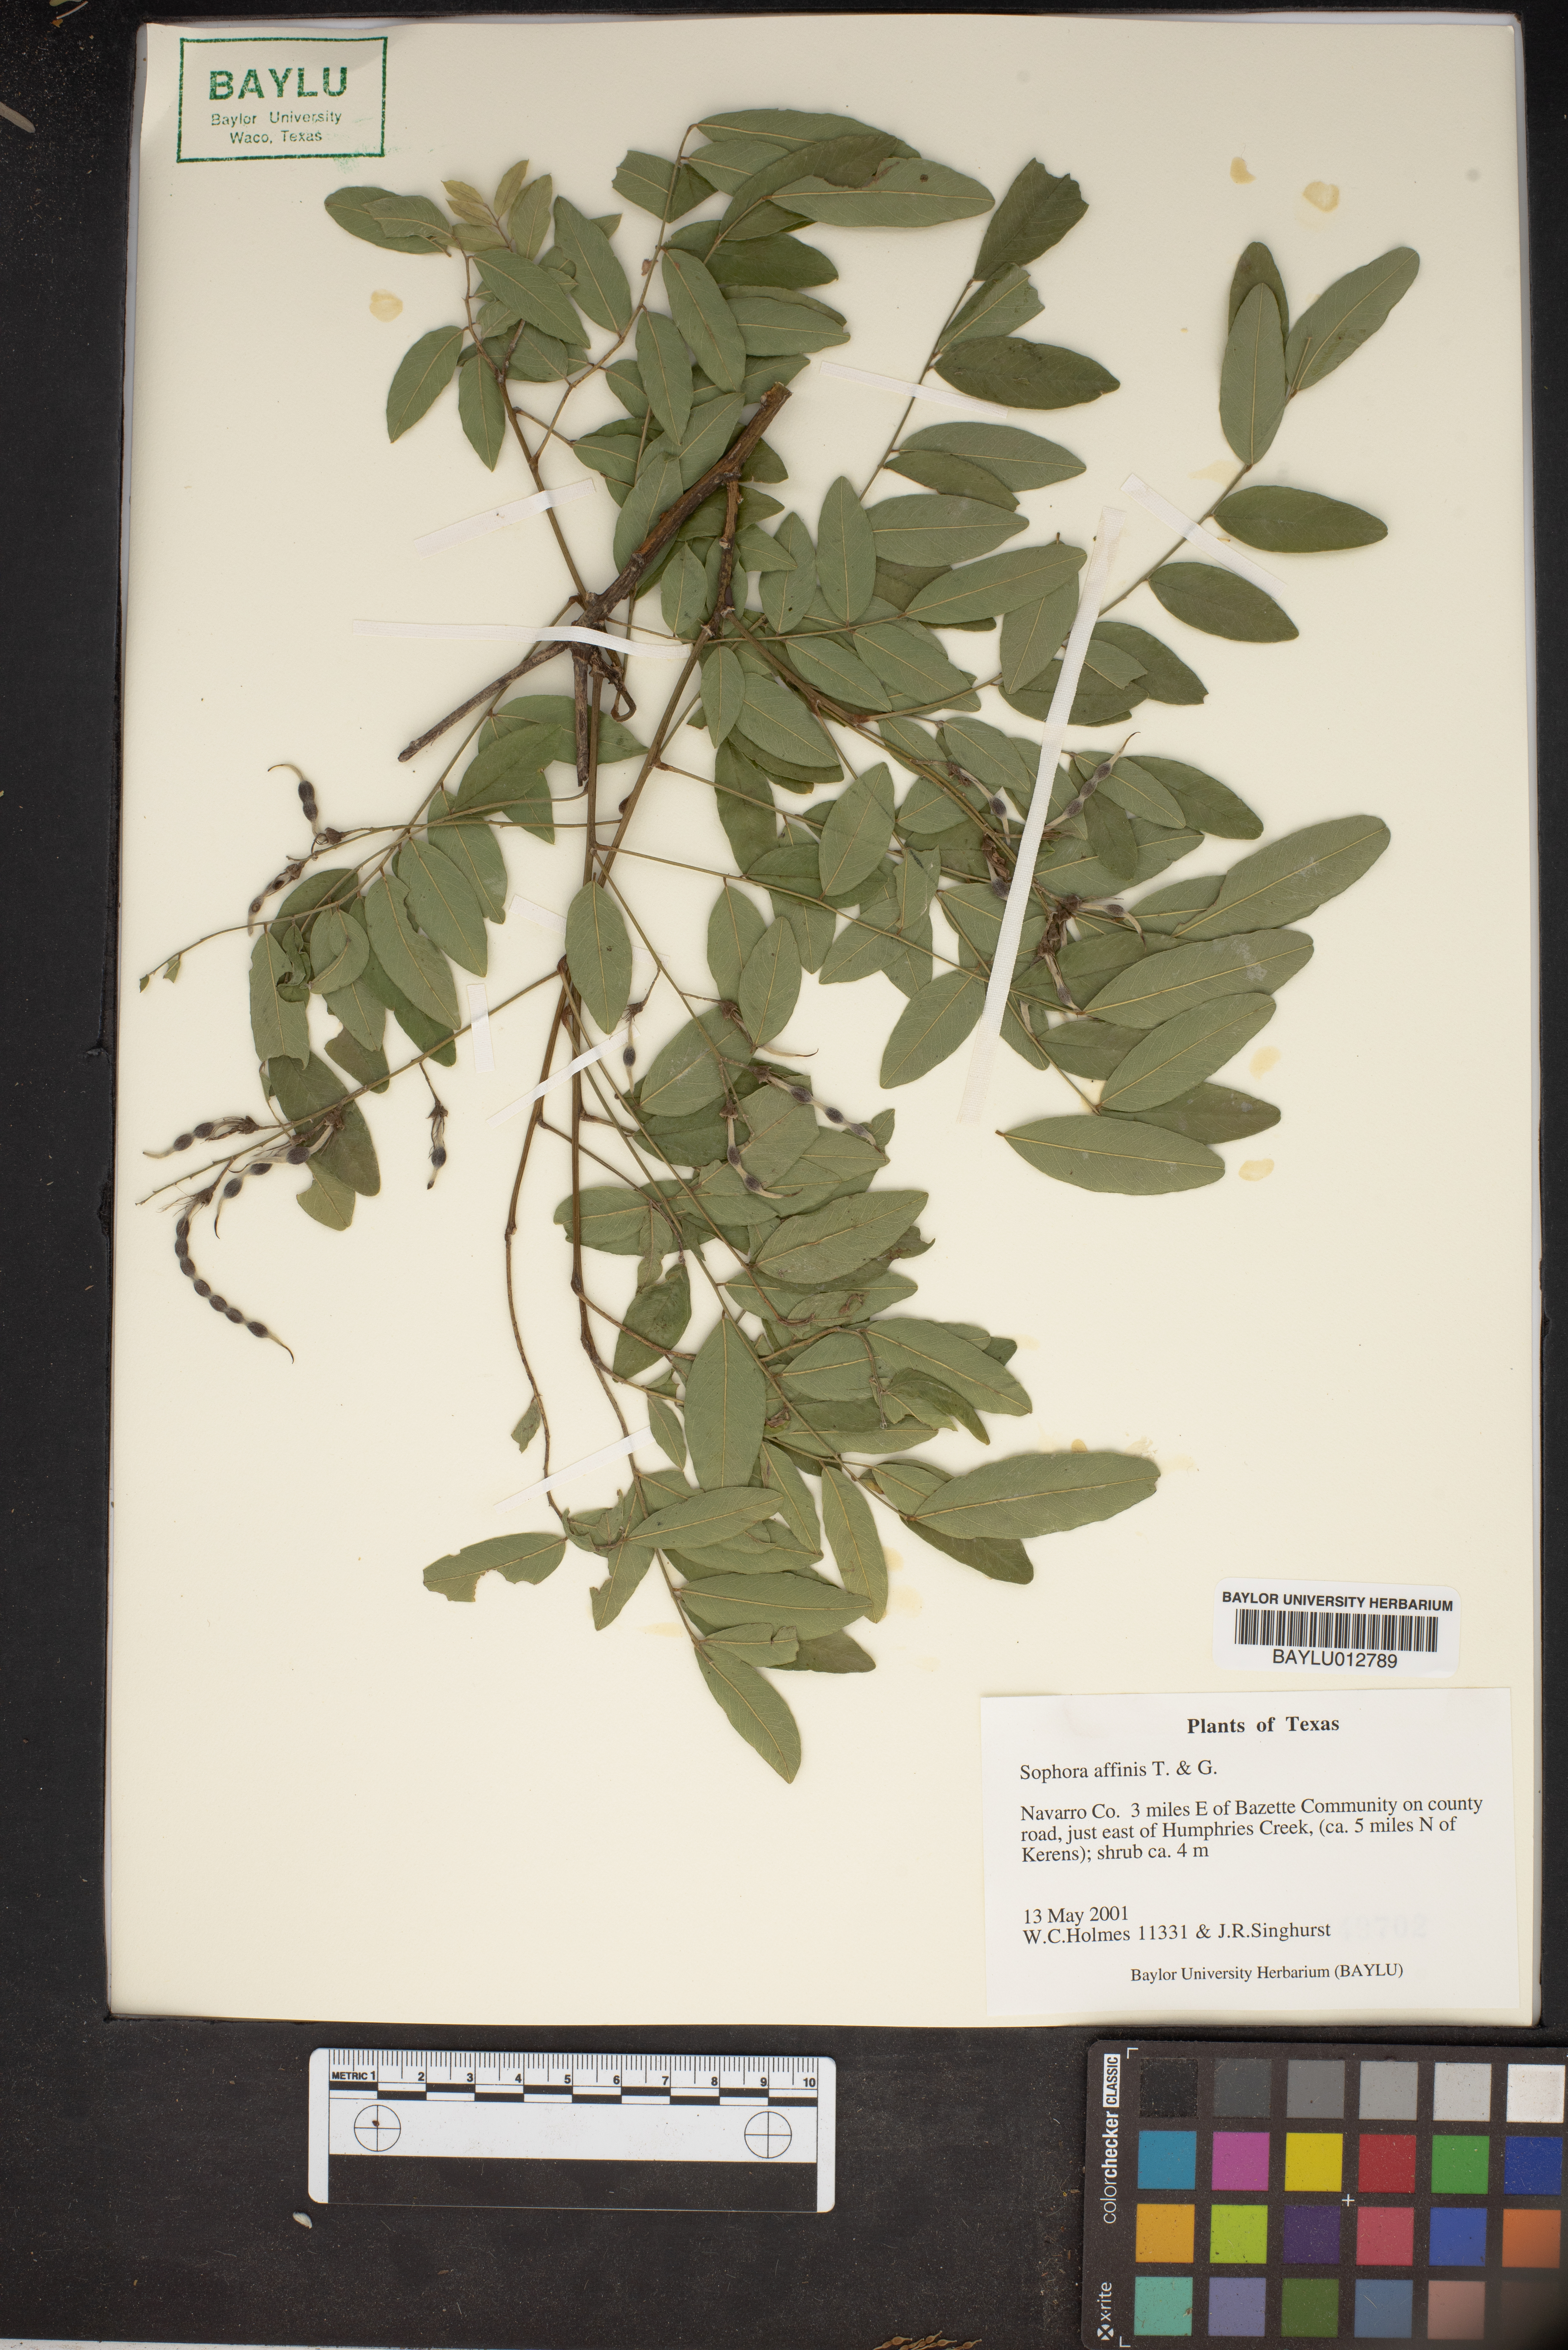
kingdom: Plantae
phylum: Tracheophyta
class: Magnoliopsida
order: Fabales
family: Fabaceae
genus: Styphnolobium
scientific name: Styphnolobium affine
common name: Texas sophora
